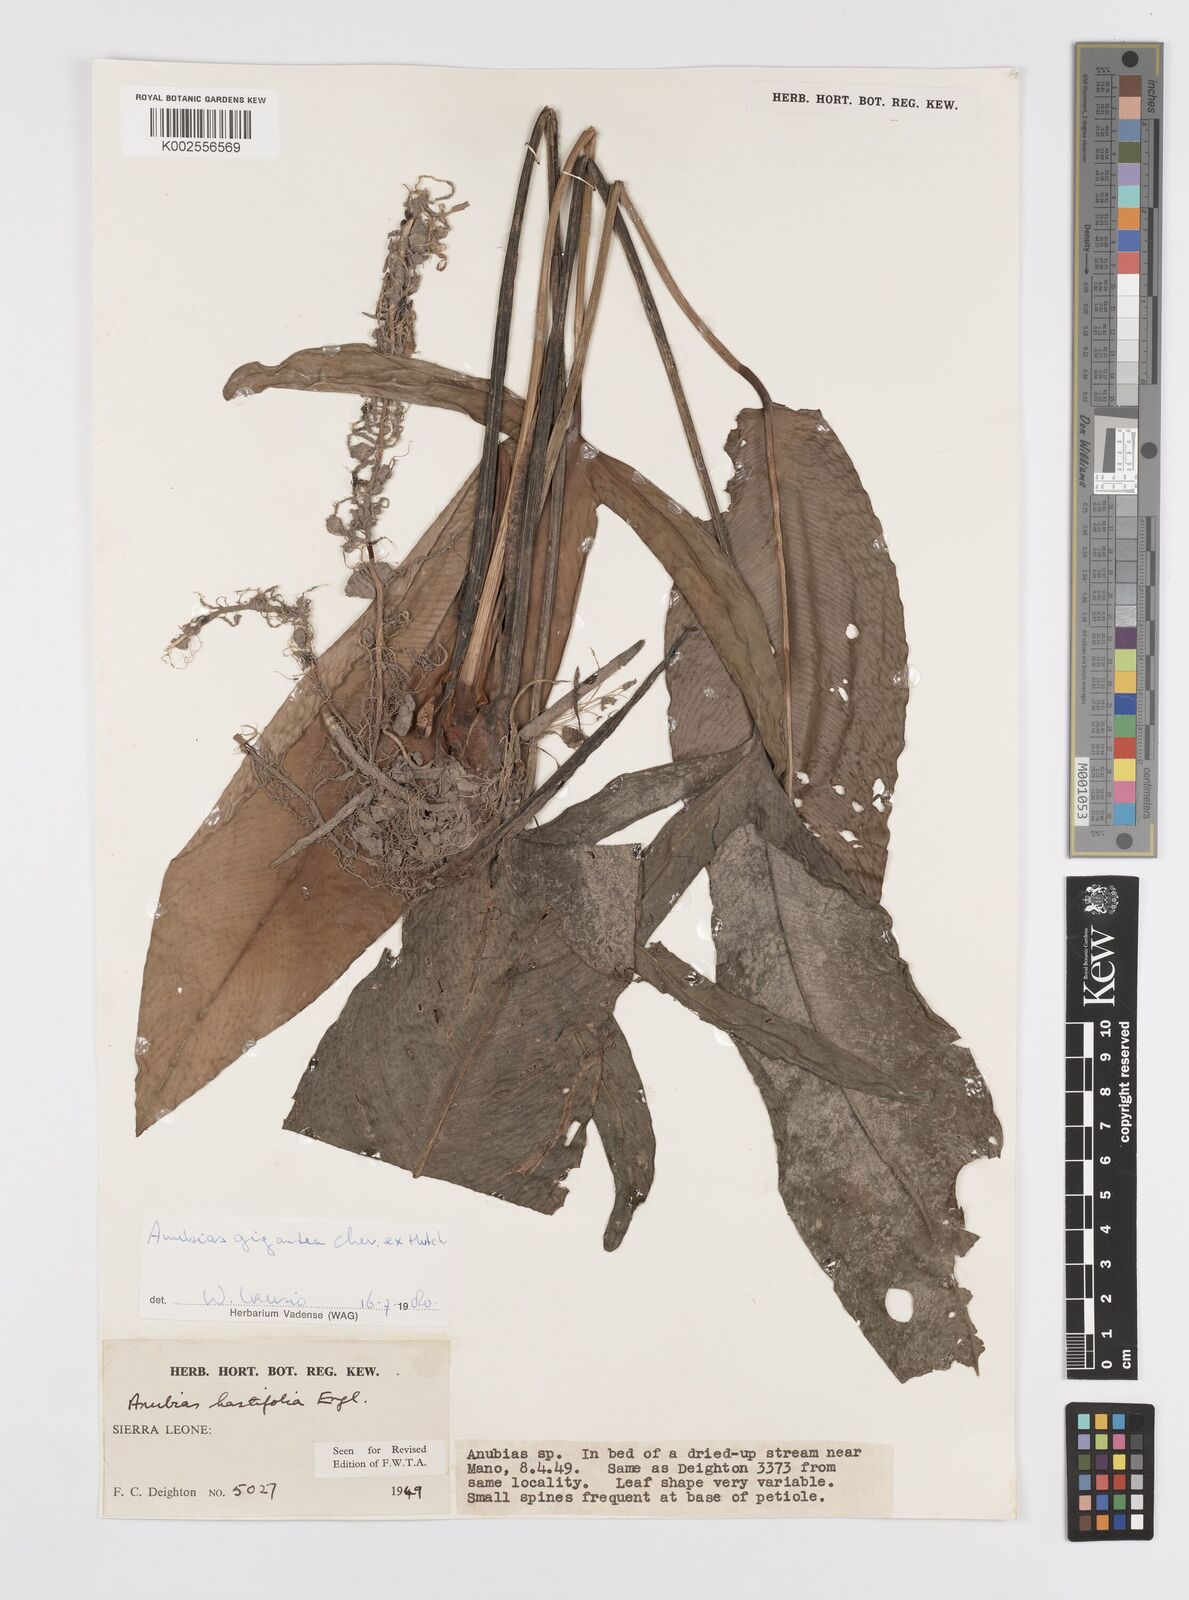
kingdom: Plantae
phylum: Tracheophyta
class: Liliopsida
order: Alismatales
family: Araceae
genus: Anubias
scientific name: Anubias gigantea
